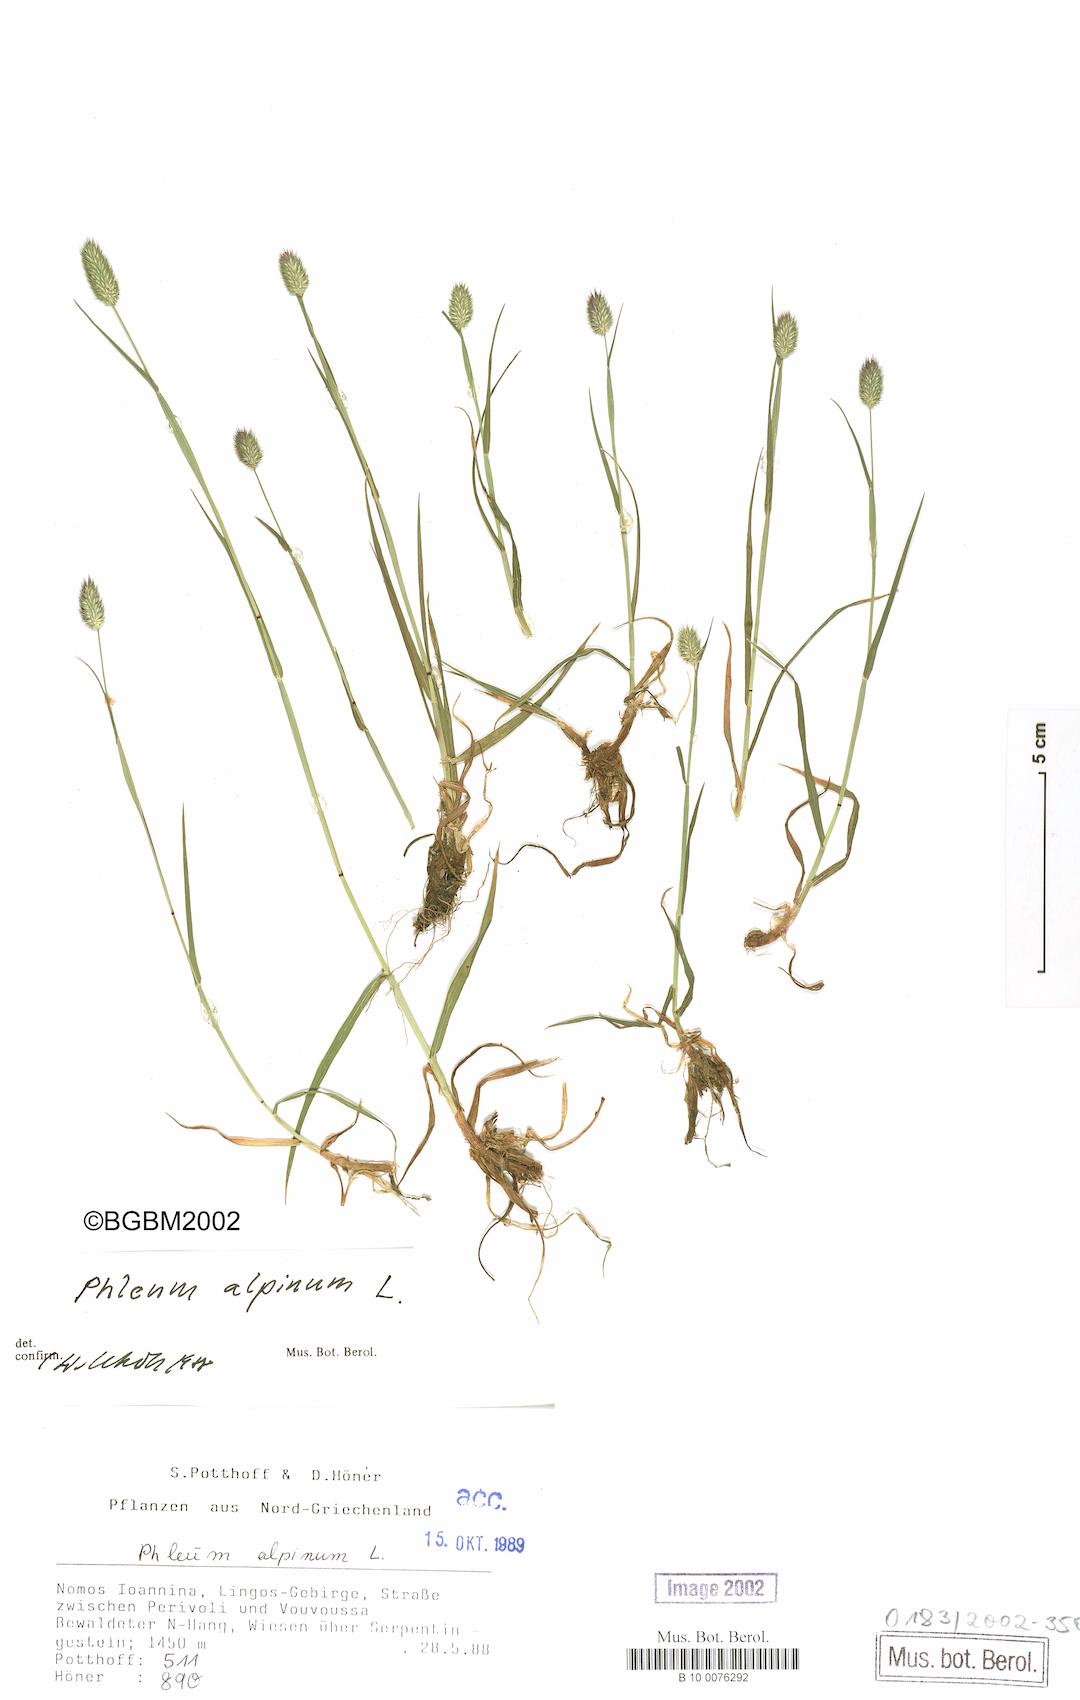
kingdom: Plantae
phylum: Tracheophyta
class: Liliopsida
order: Poales
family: Poaceae
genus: Phleum
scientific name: Phleum alpinum
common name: Alpine cat's-tail
